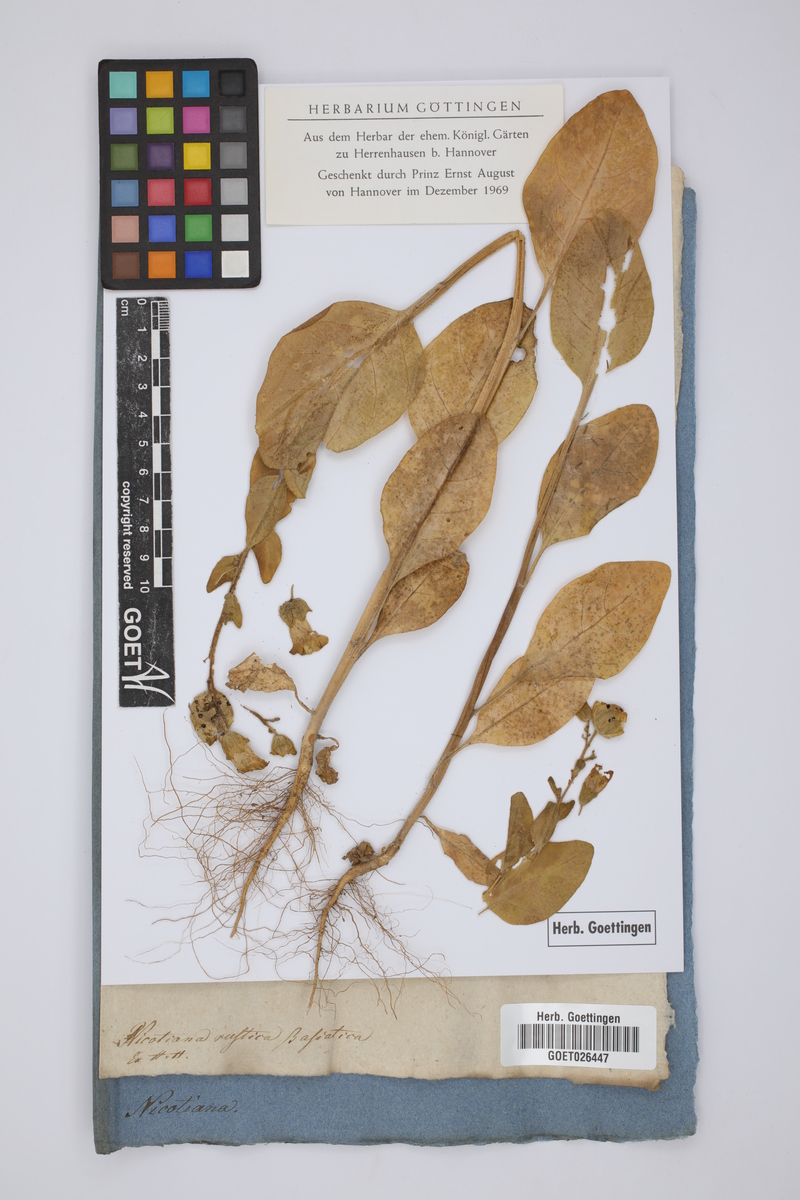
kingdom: Plantae
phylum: Tracheophyta
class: Magnoliopsida
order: Solanales
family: Solanaceae
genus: Nicotiana
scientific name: Nicotiana rustica
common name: Wild tobacco
